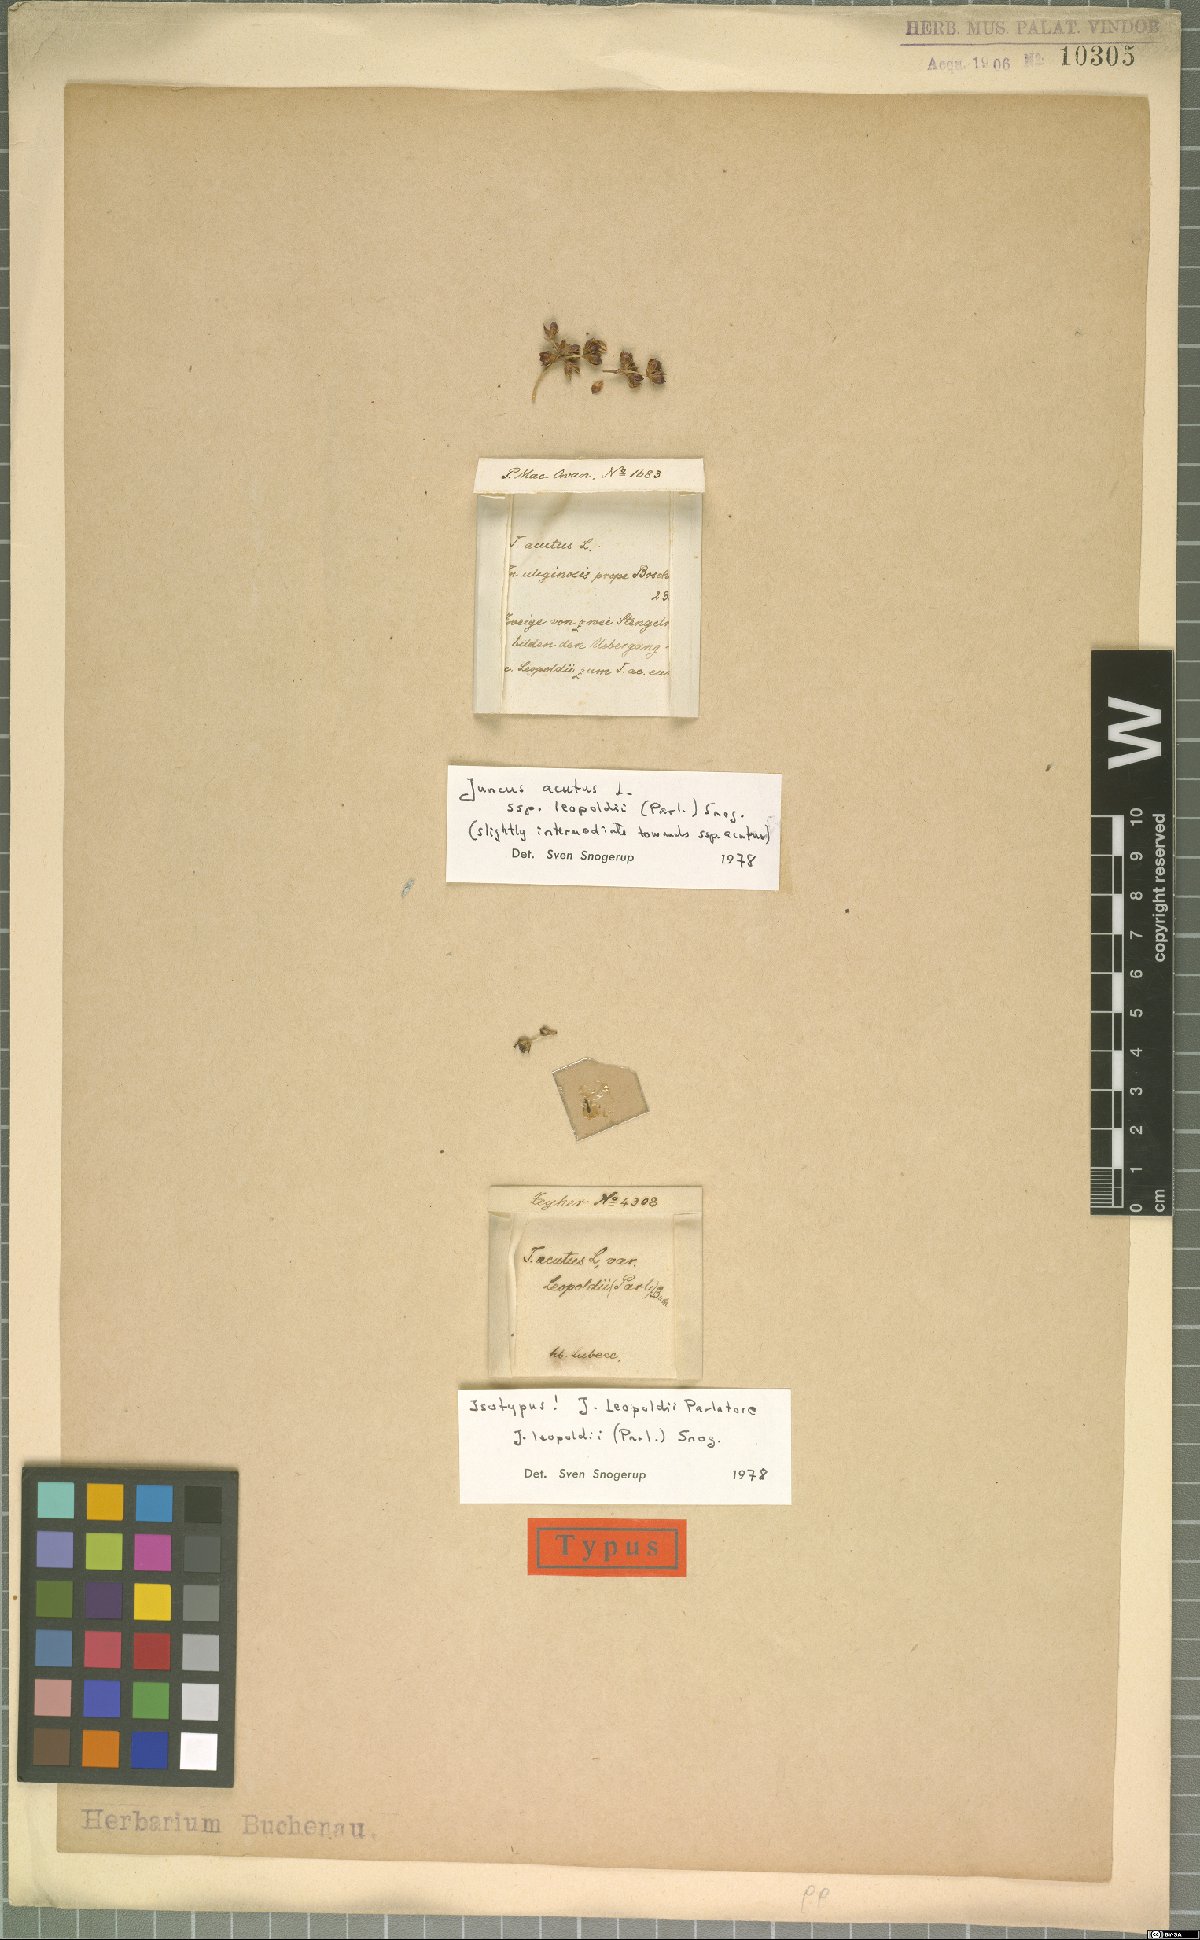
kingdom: Plantae
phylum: Tracheophyta
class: Liliopsida
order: Poales
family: Juncaceae
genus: Juncus
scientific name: Juncus acutus
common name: Sharp rush
